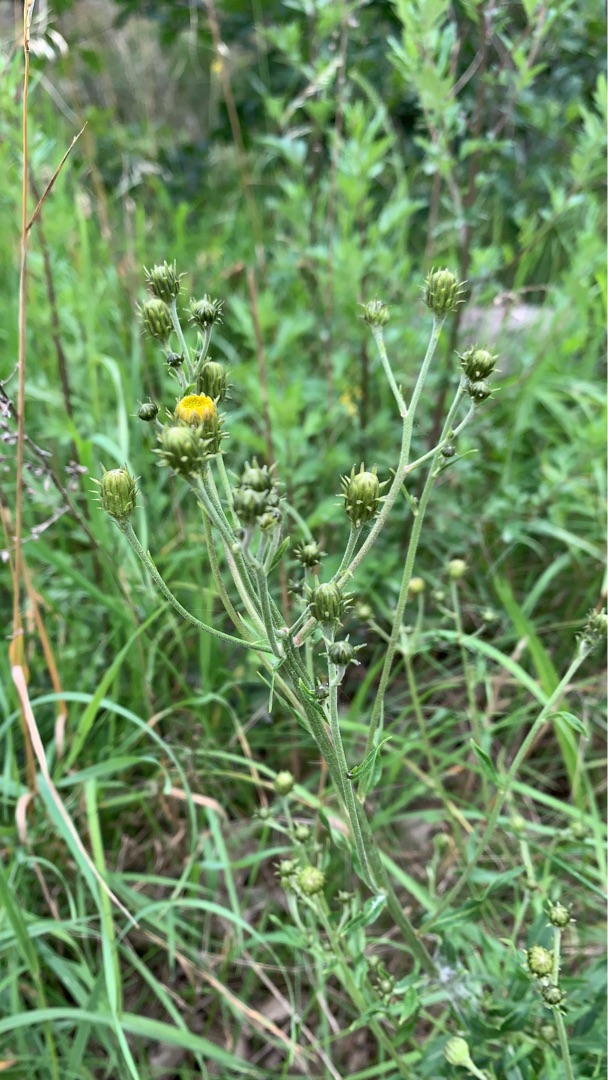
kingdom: Plantae
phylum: Tracheophyta
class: Magnoliopsida
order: Asterales
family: Asteraceae
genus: Hieracium
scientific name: Hieracium umbellatum
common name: Smalbladet høgeurt
